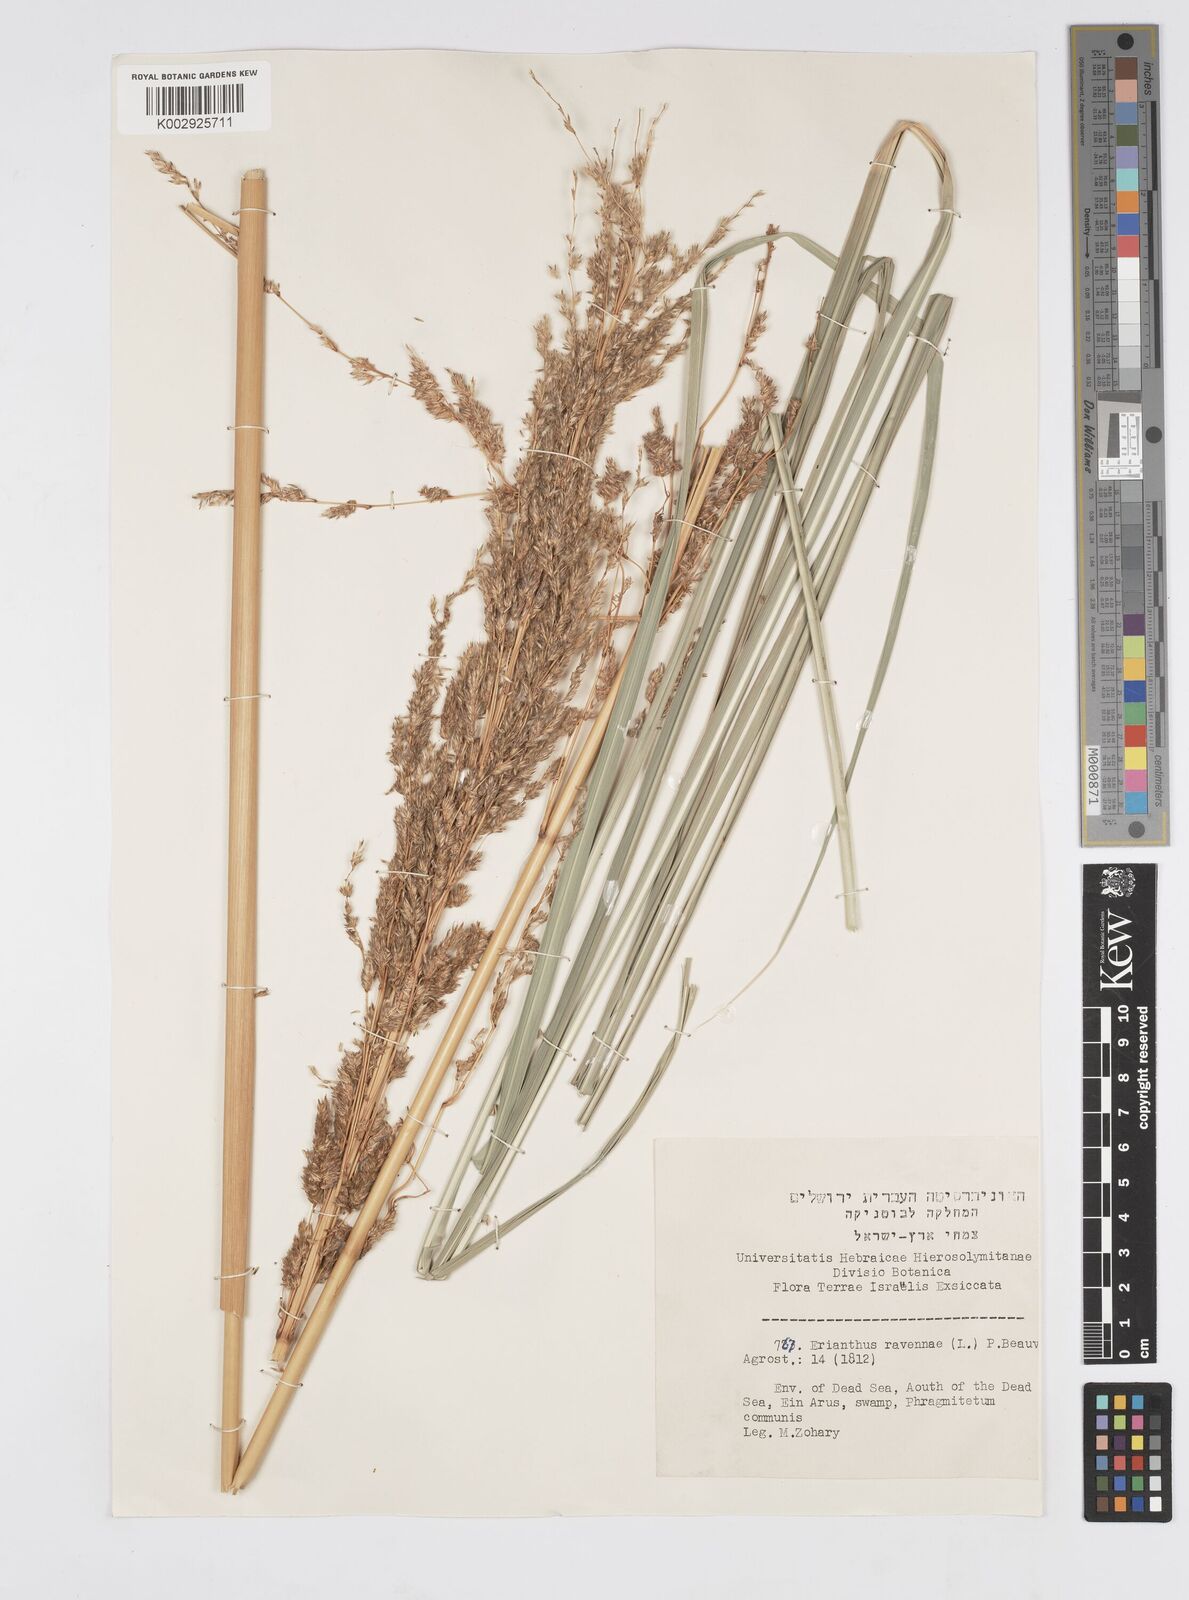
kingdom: Plantae
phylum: Tracheophyta
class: Liliopsida
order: Poales
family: Poaceae
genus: Tripidium
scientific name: Tripidium ravennae
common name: Ravenna grass
